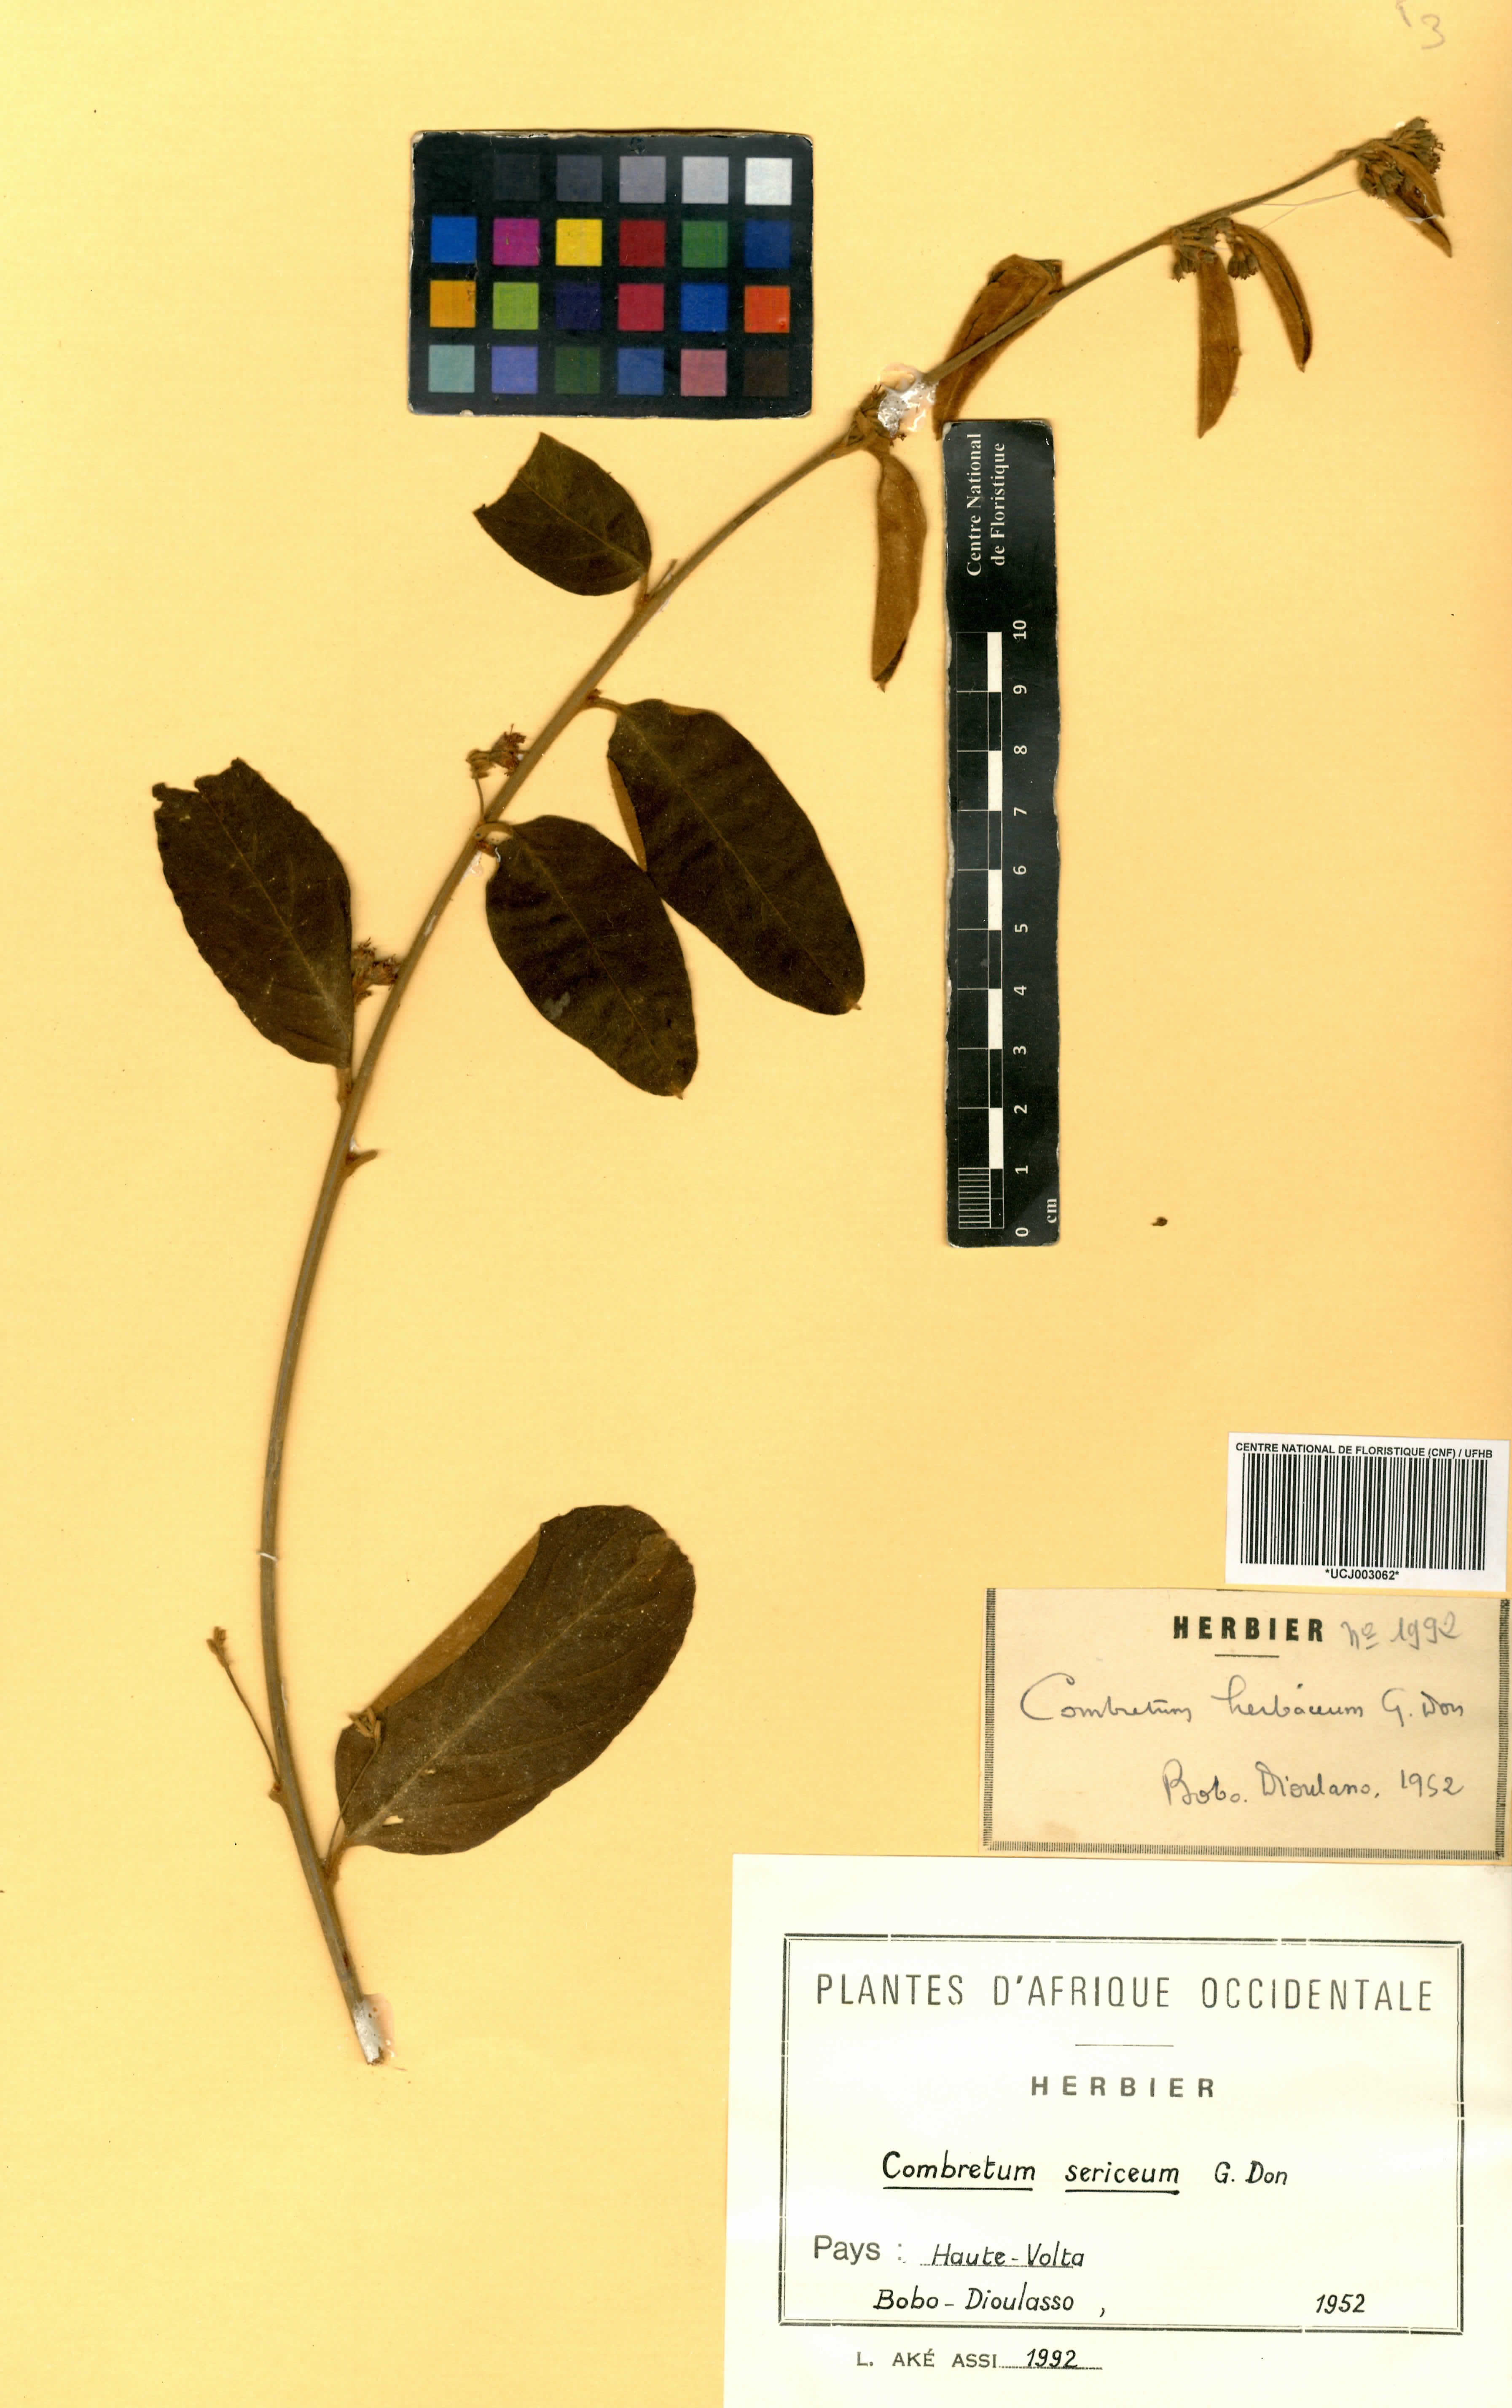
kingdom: Plantae
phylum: Tracheophyta
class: Magnoliopsida
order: Myrtales
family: Combretaceae
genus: Combretum
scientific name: Combretum sericeum
